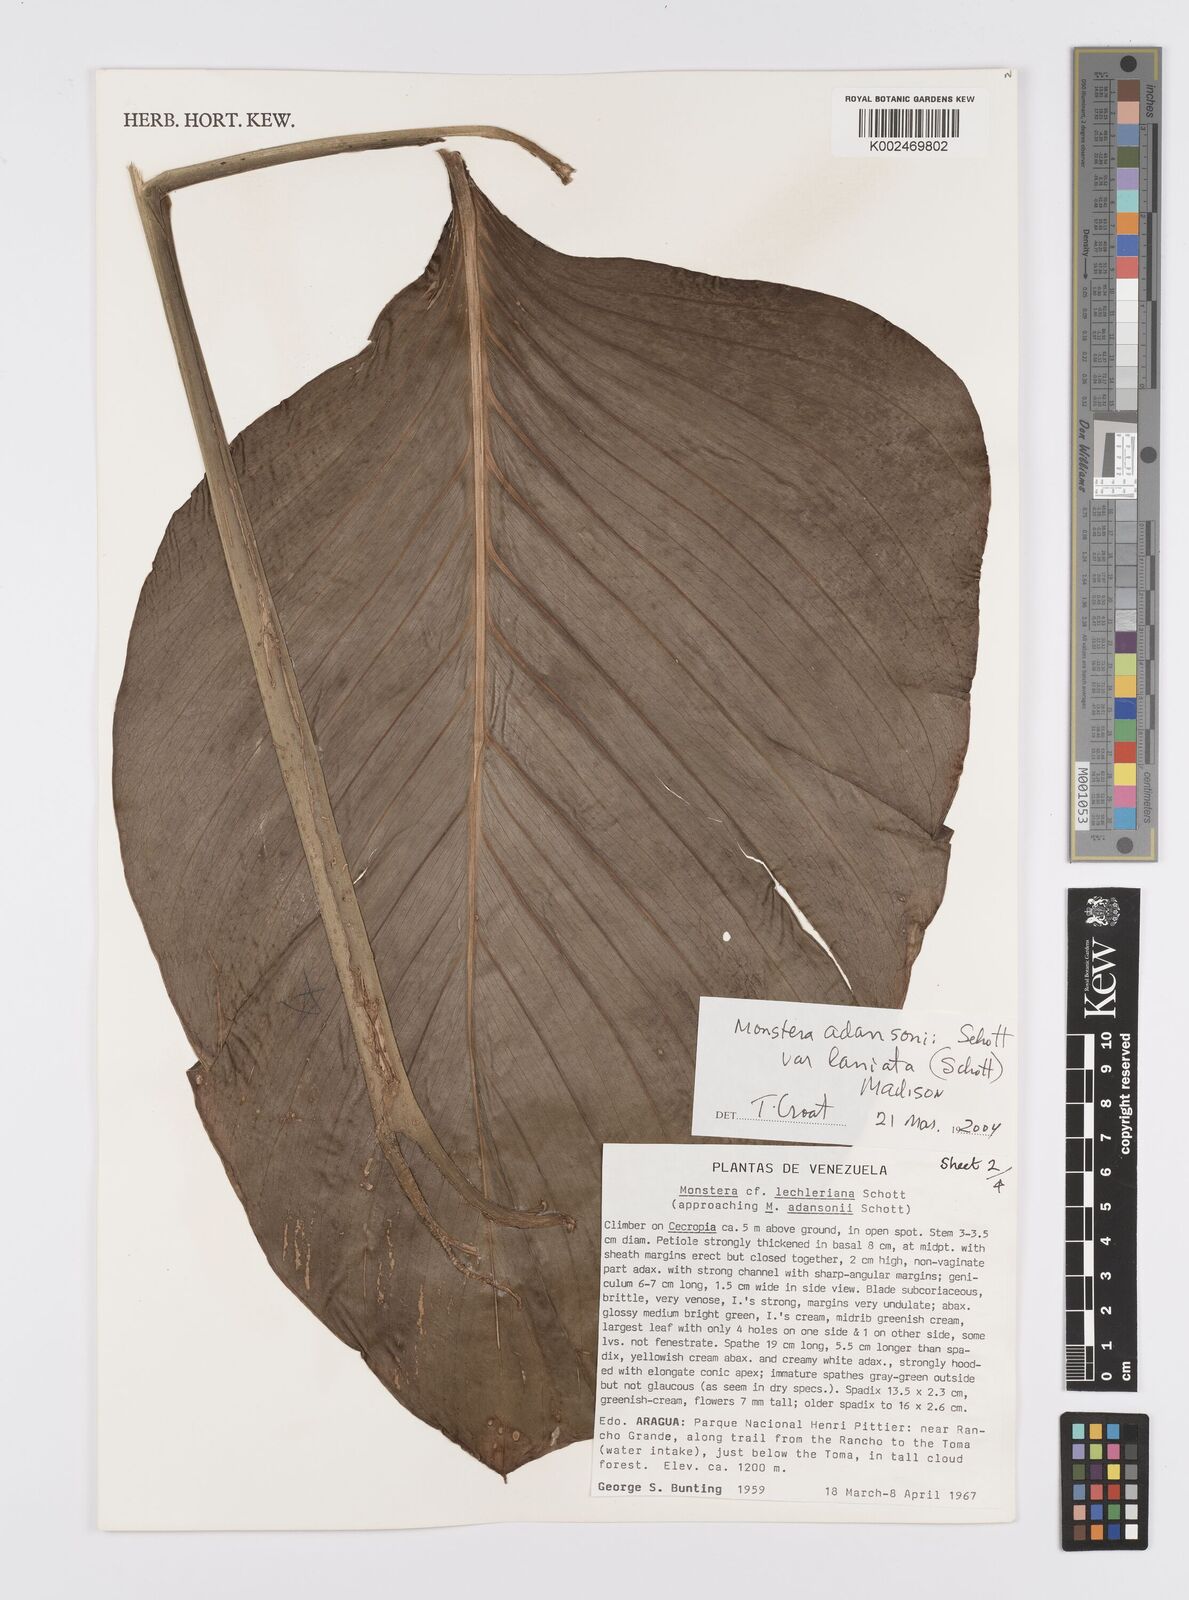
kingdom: Plantae
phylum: Tracheophyta
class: Liliopsida
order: Alismatales
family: Araceae
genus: Monstera
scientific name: Monstera adansonii
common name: Tarovine
